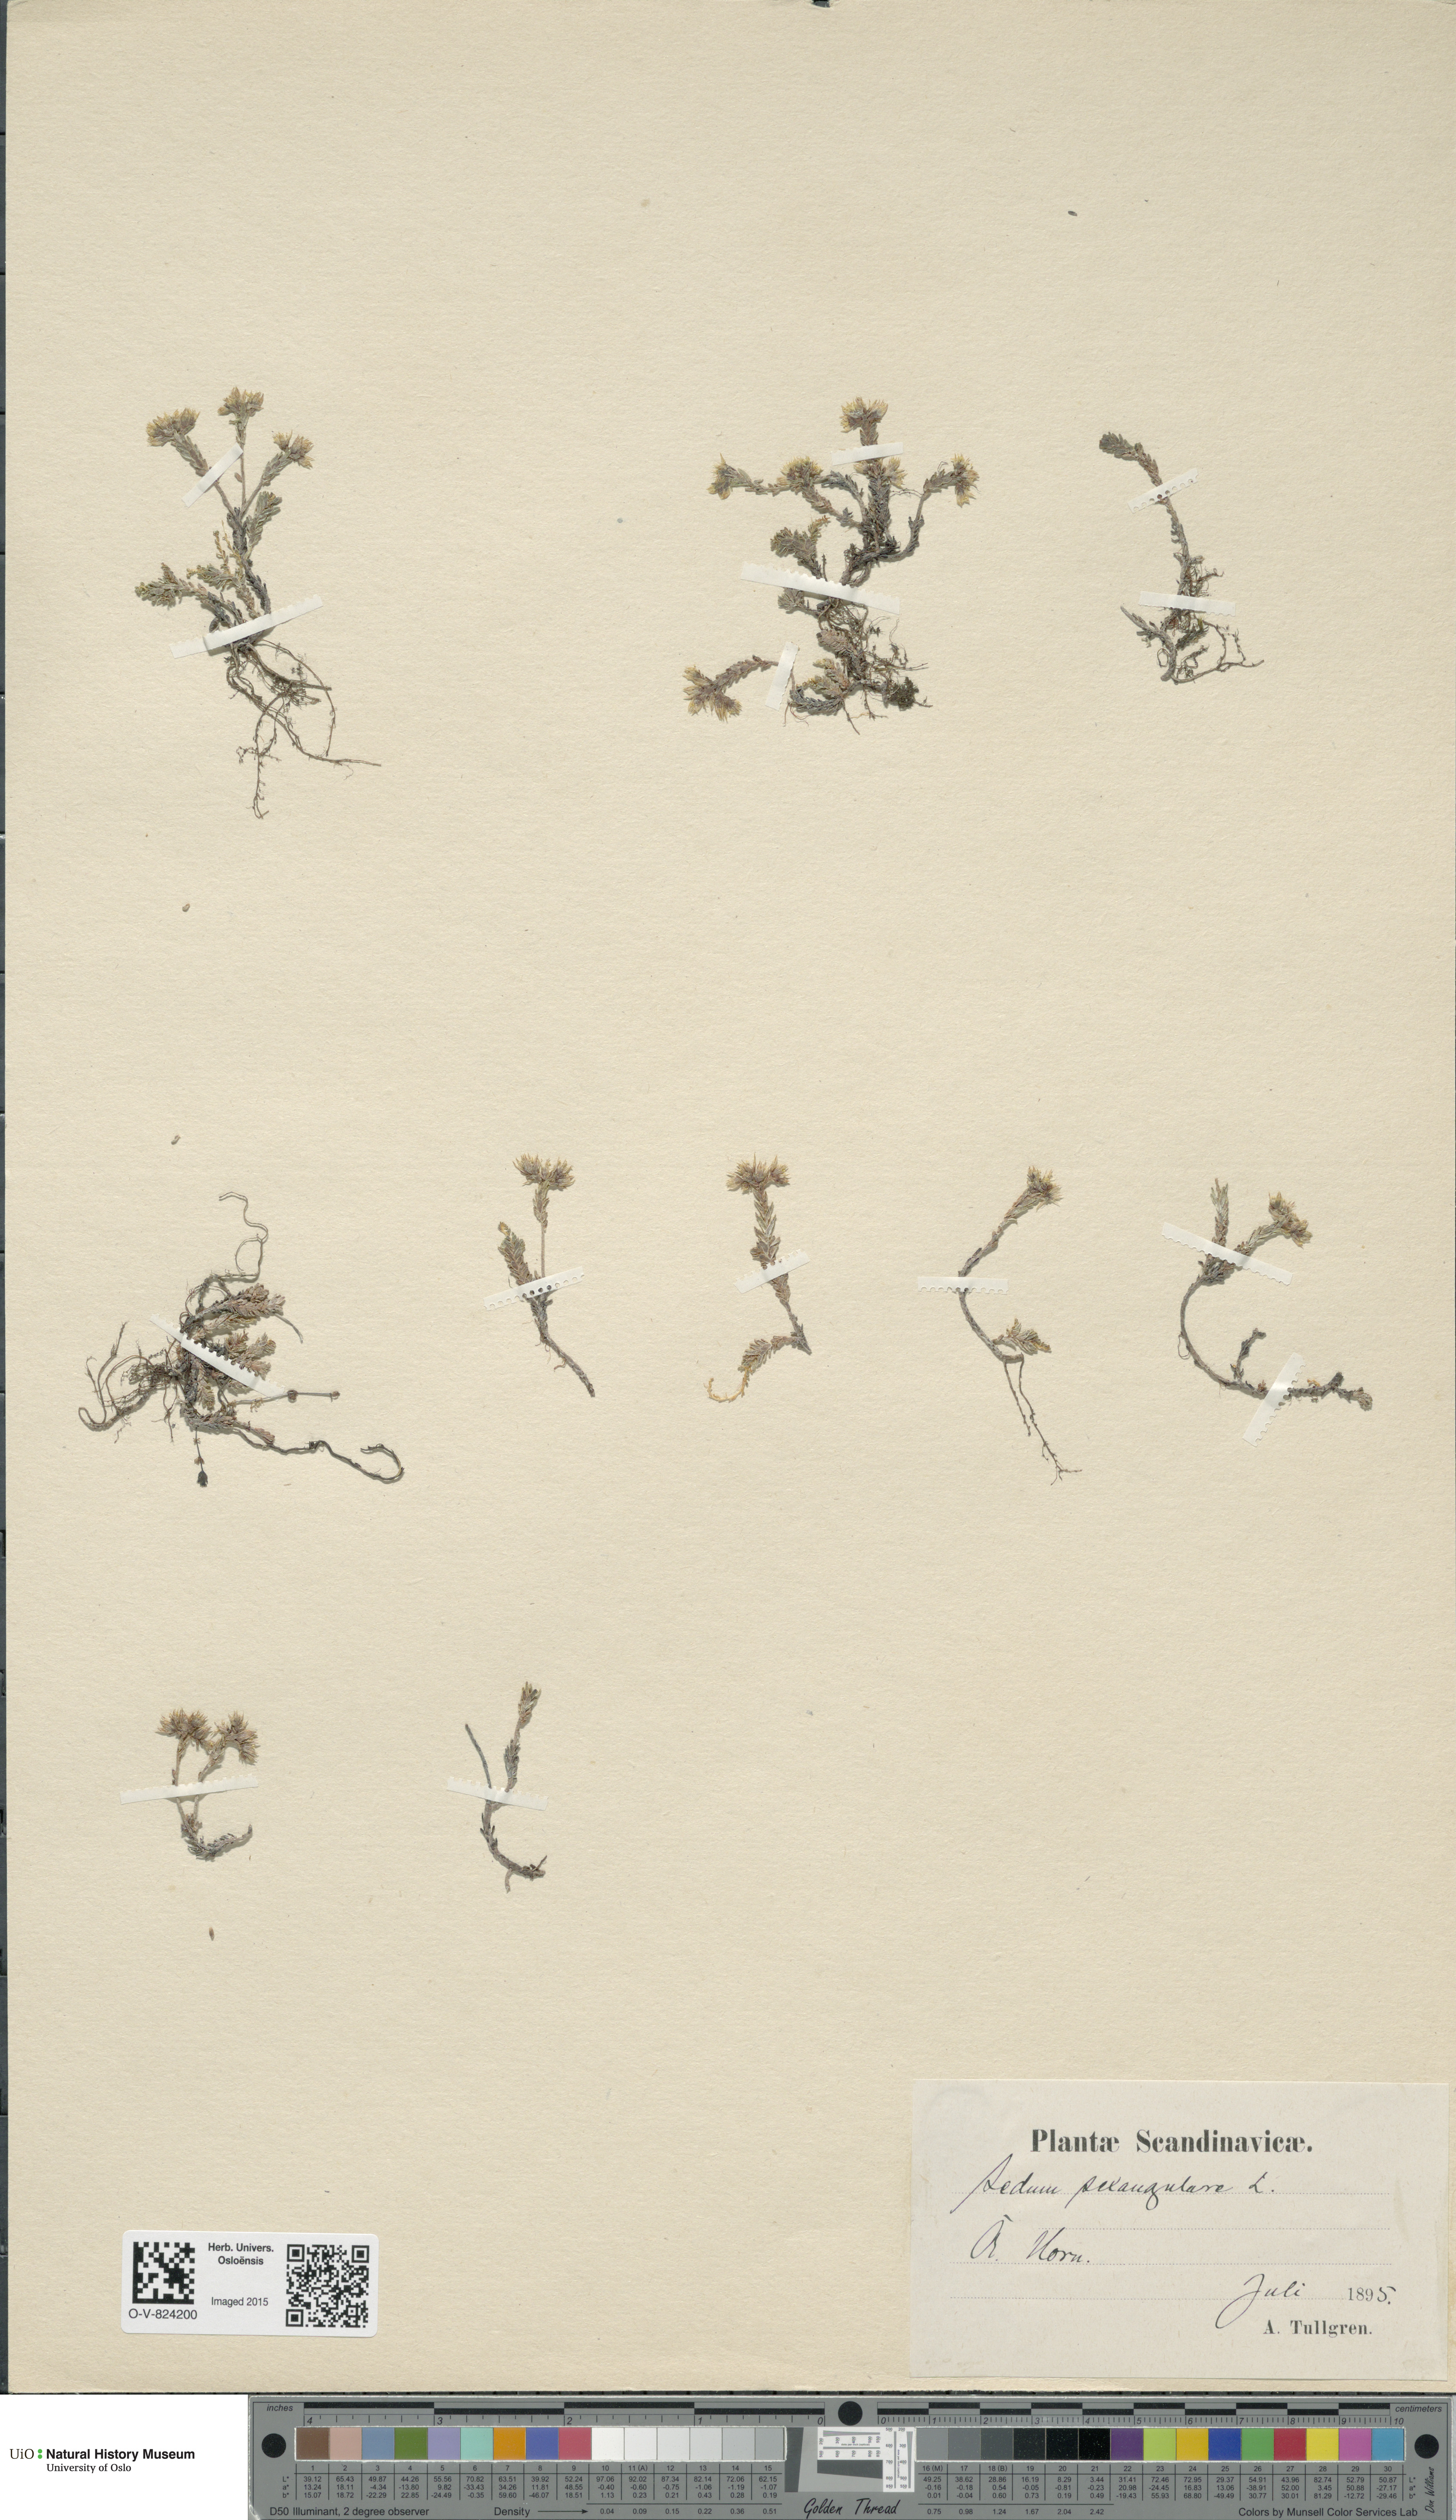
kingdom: Plantae
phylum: Tracheophyta
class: Magnoliopsida
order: Saxifragales
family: Crassulaceae
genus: Sedum
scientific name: Sedum sexangulare
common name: Tasteless stonecrop
